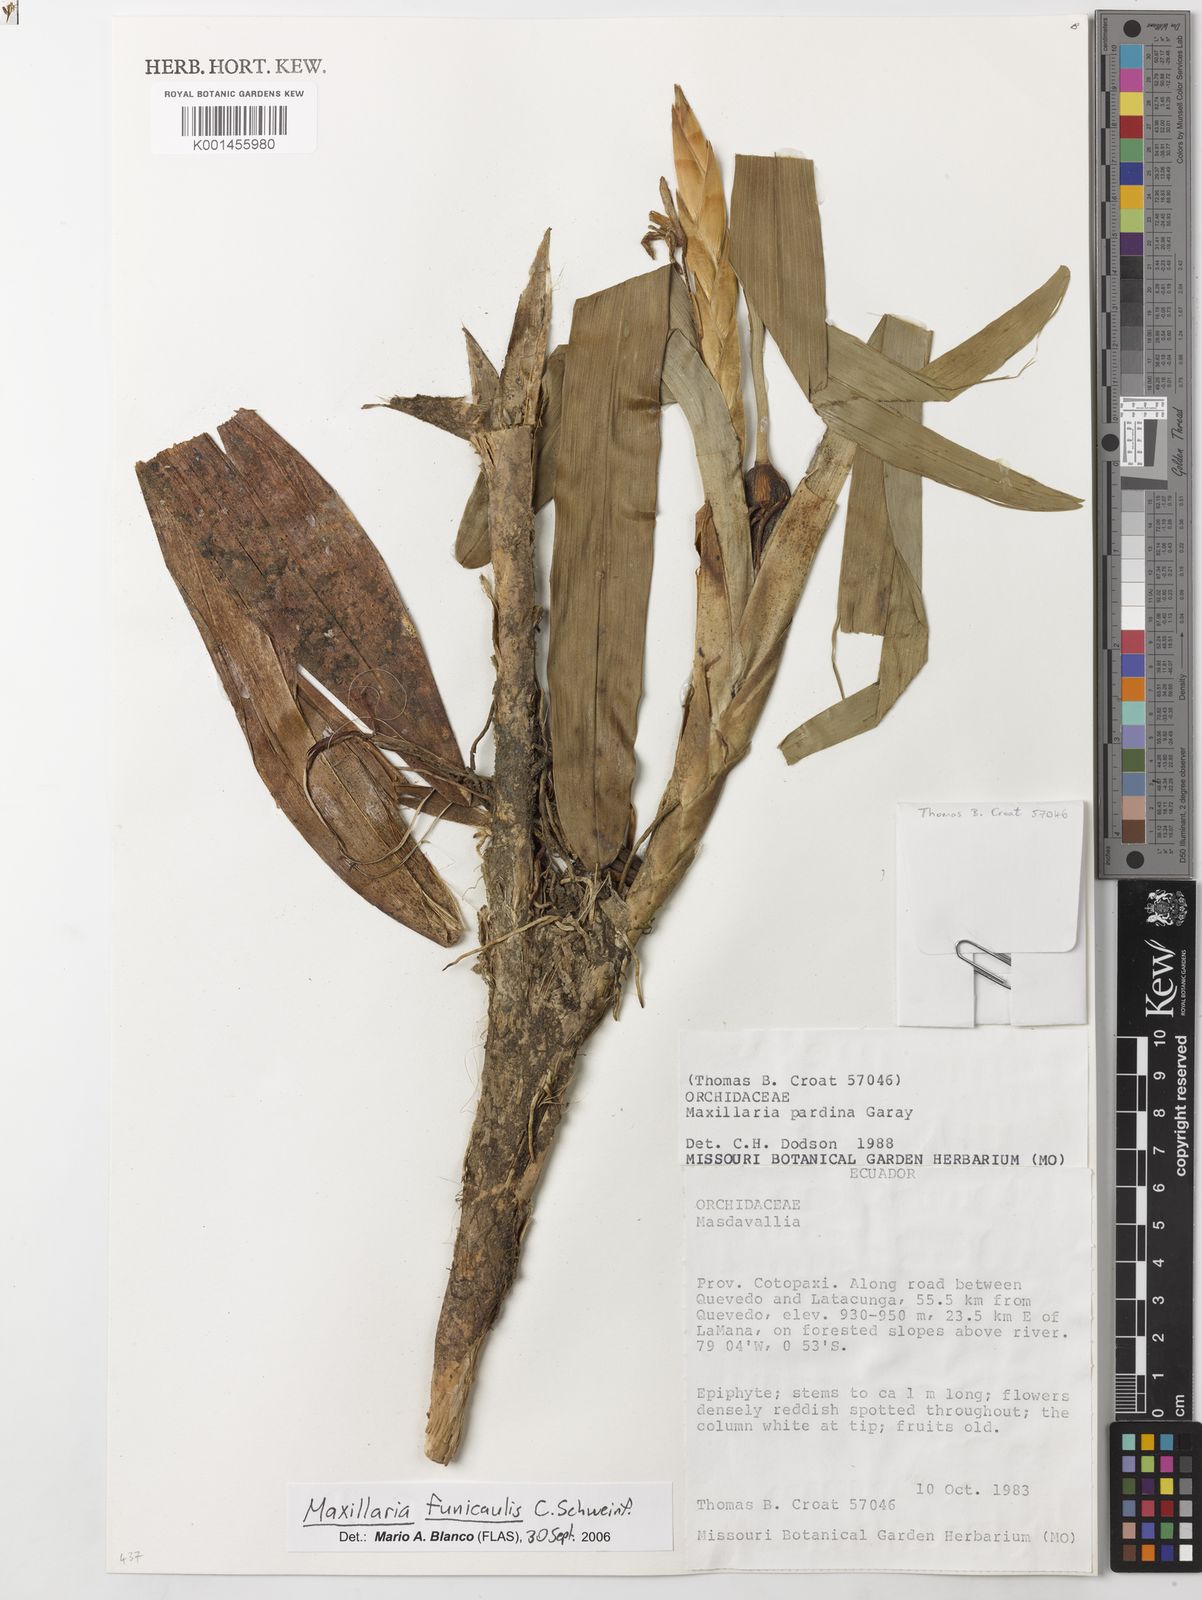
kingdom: Plantae
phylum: Tracheophyta
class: Liliopsida
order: Asparagales
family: Orchidaceae
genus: Maxillaria
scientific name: Maxillaria funicaulis
